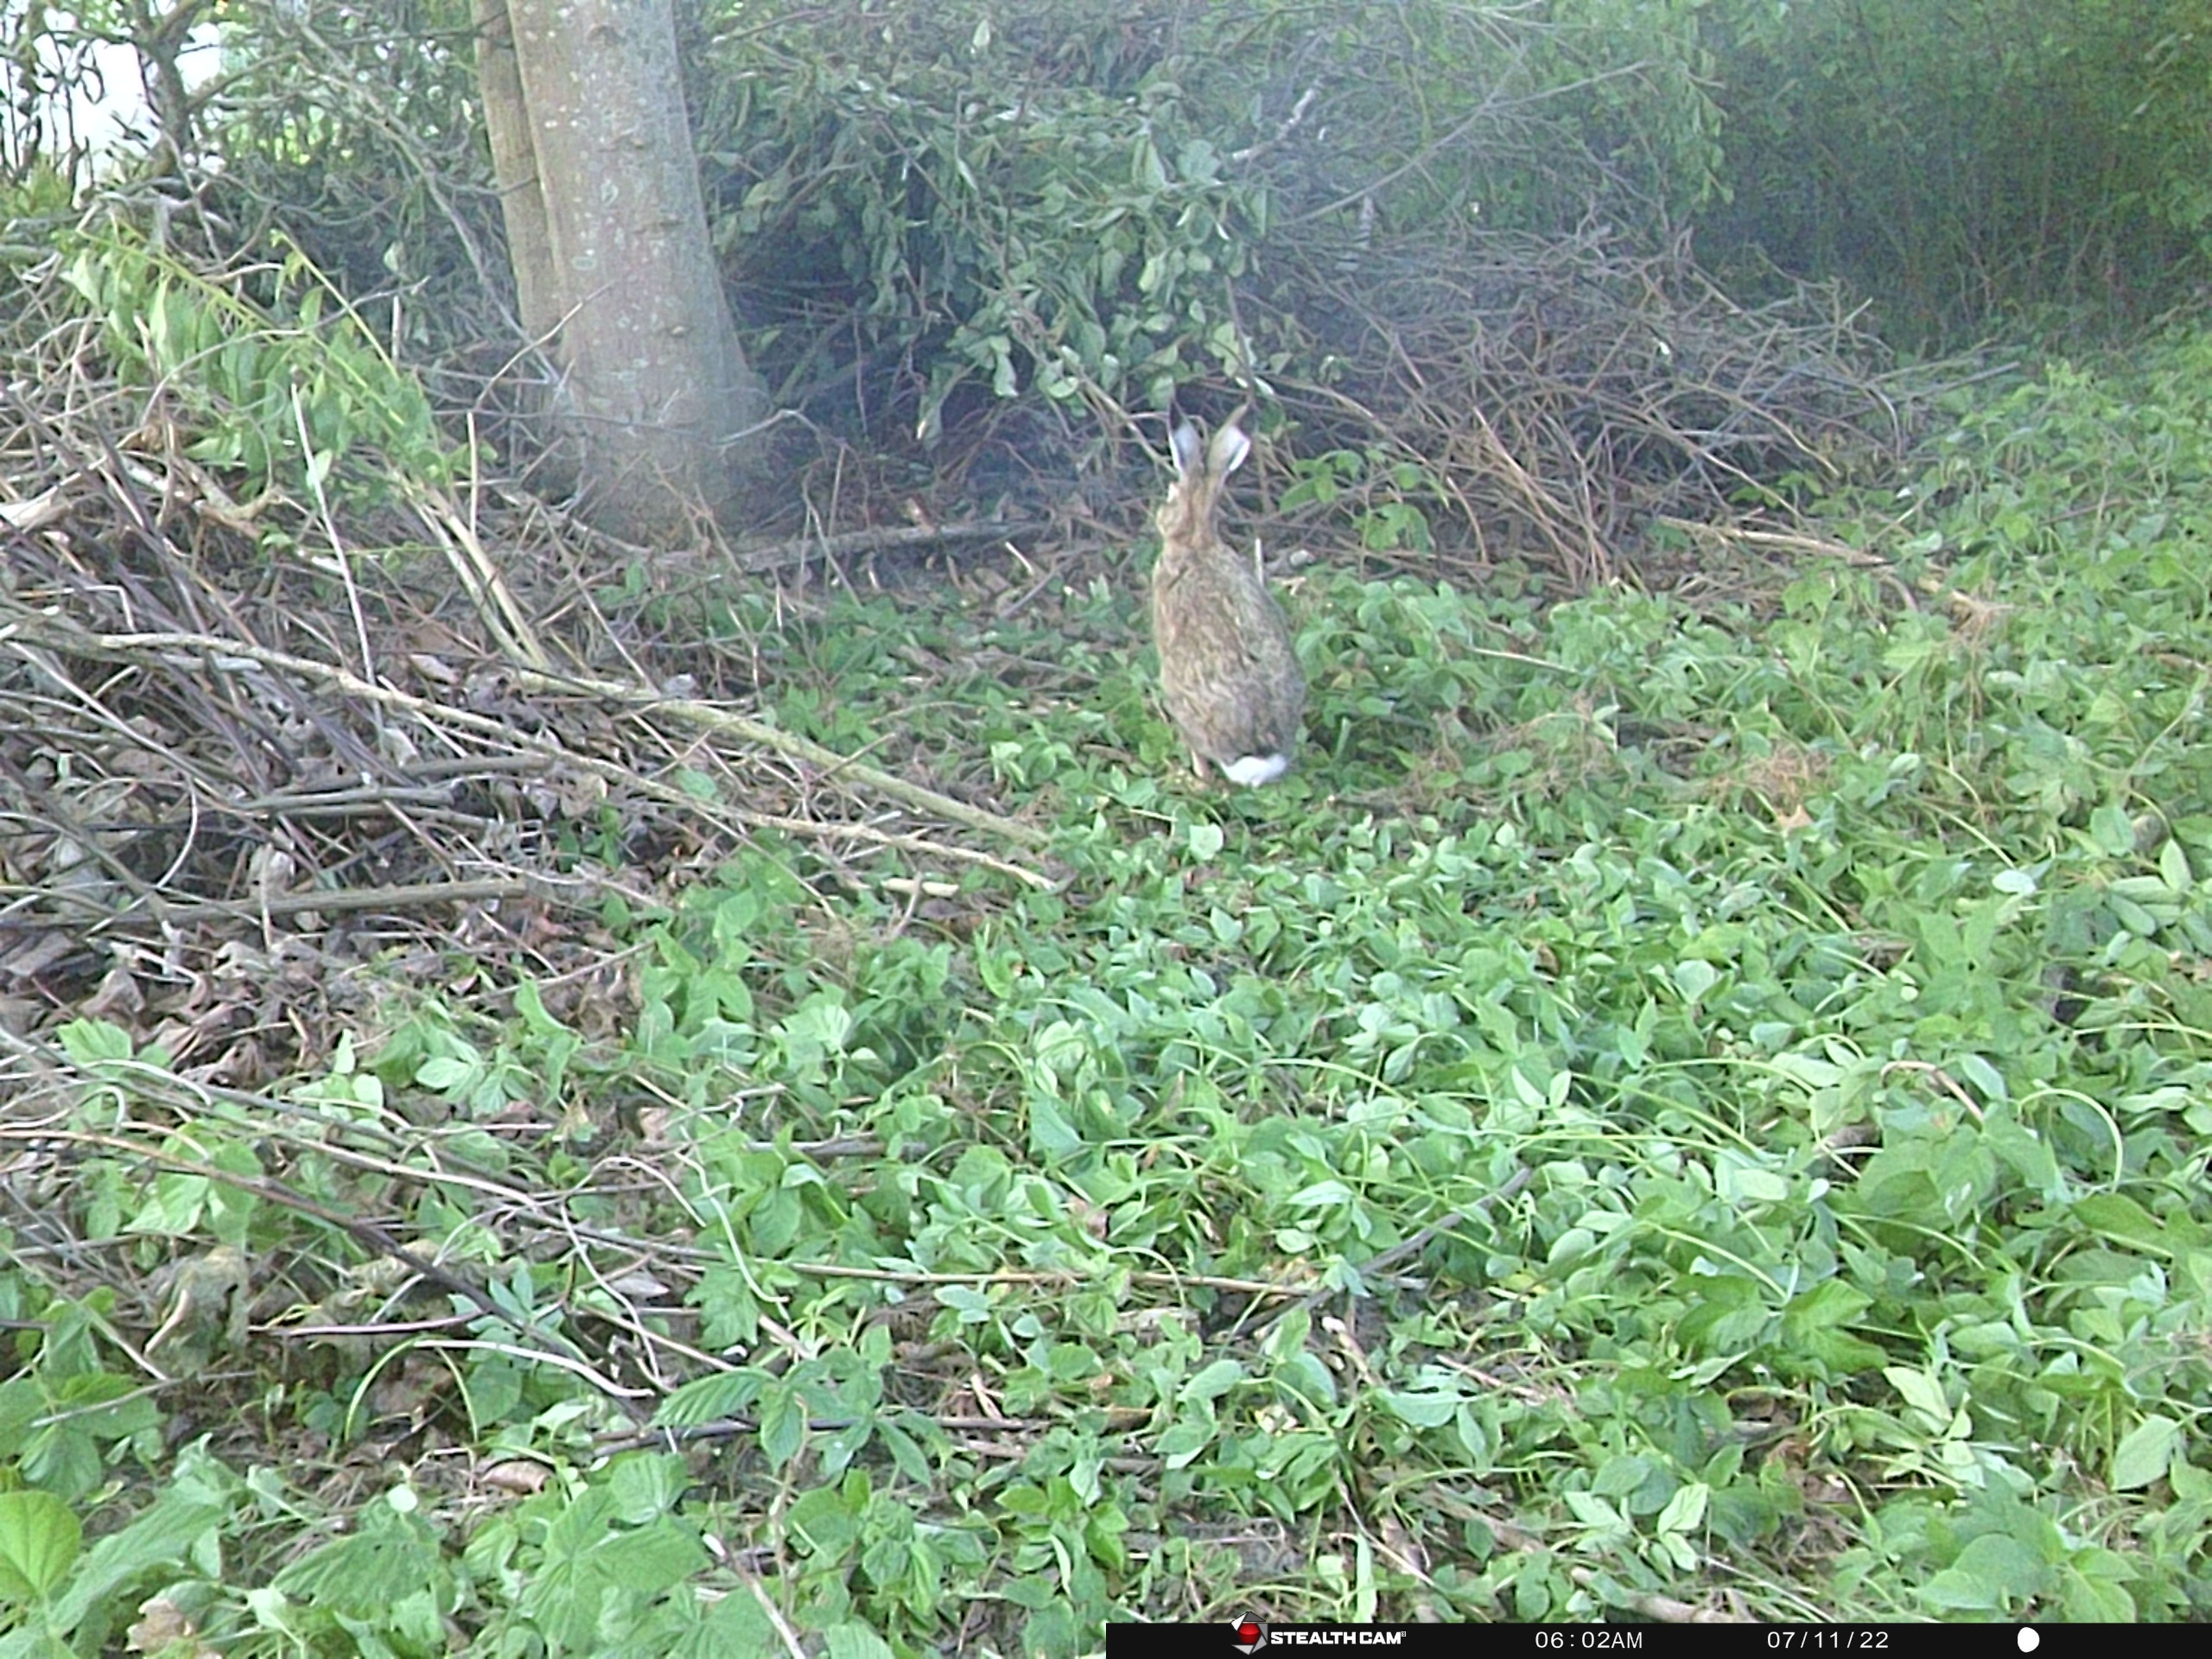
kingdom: Animalia
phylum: Chordata
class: Mammalia
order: Lagomorpha
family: Leporidae
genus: Lepus
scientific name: Lepus europaeus
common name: Hare
